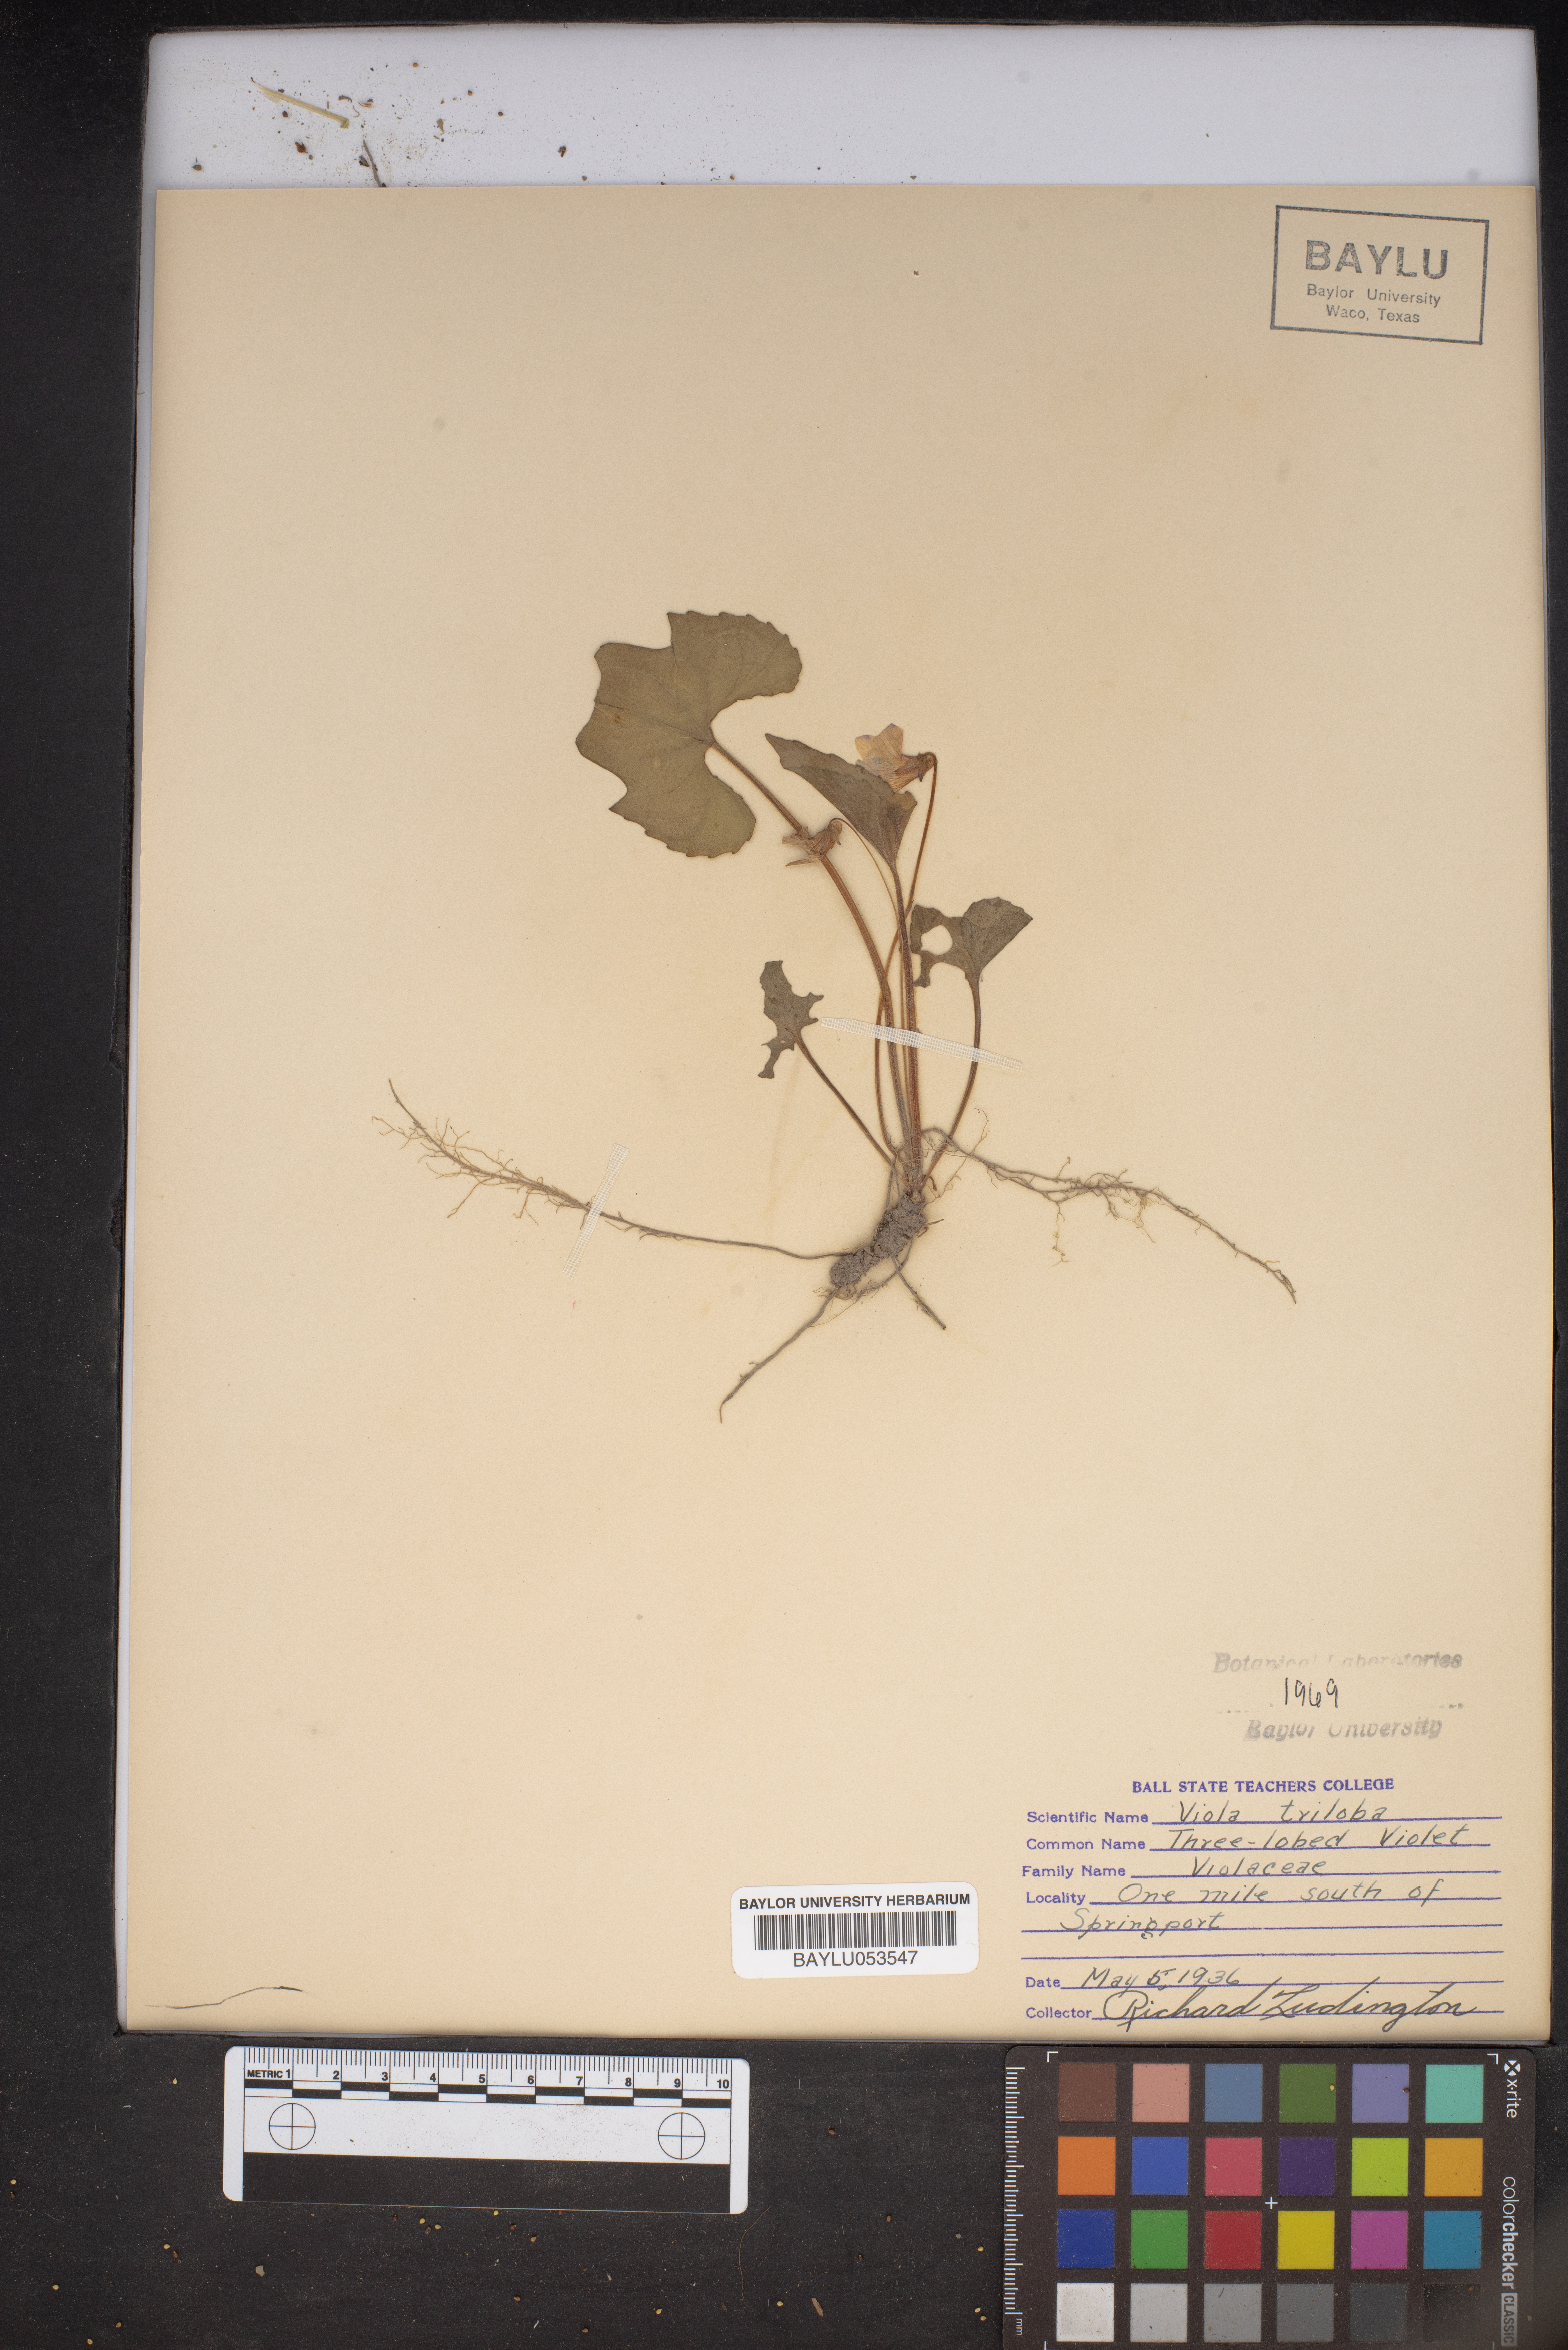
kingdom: Plantae
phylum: Tracheophyta
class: Magnoliopsida
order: Malpighiales
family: Violaceae
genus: Viola
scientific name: Viola palmata
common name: Early blue violet
